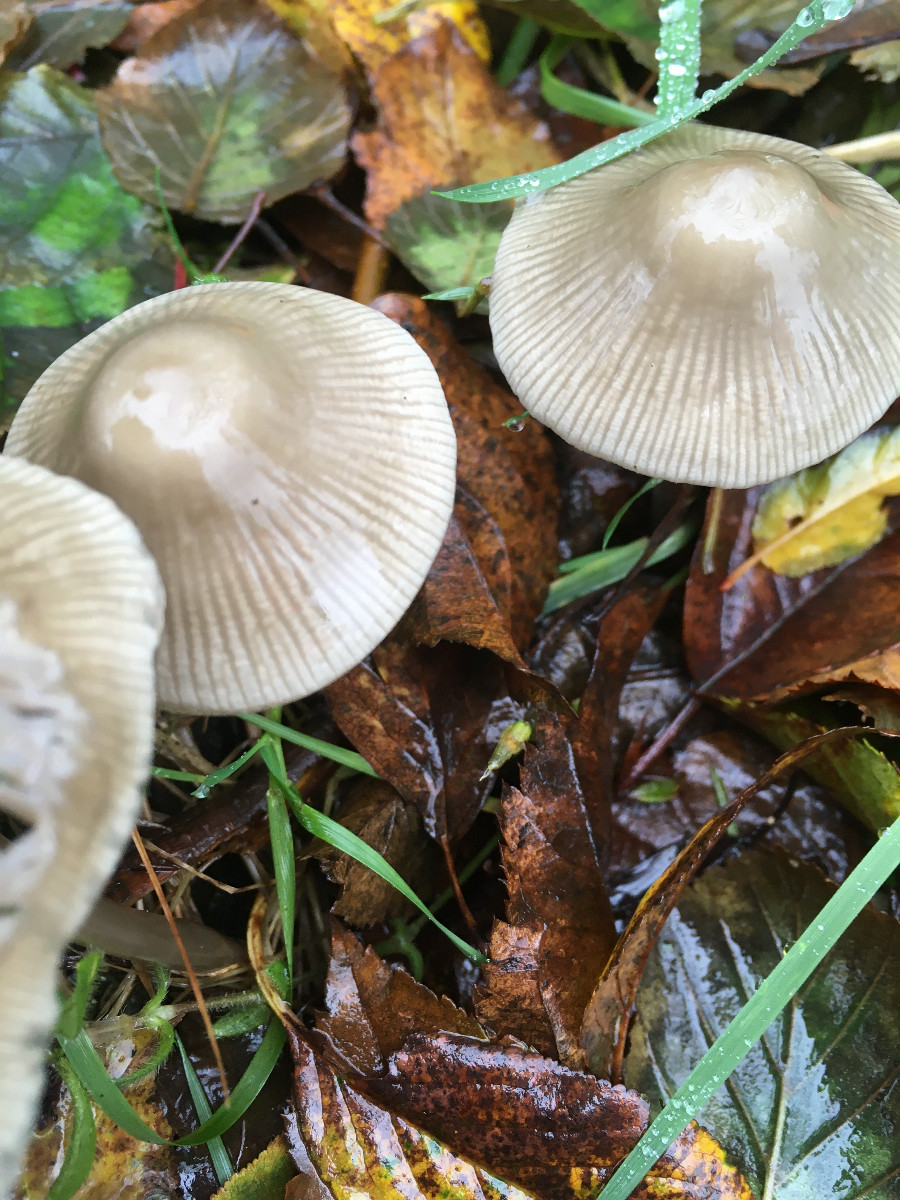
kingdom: Fungi
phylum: Basidiomycota
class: Agaricomycetes
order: Agaricales
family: Mycenaceae
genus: Mycena
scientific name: Mycena galericulata
